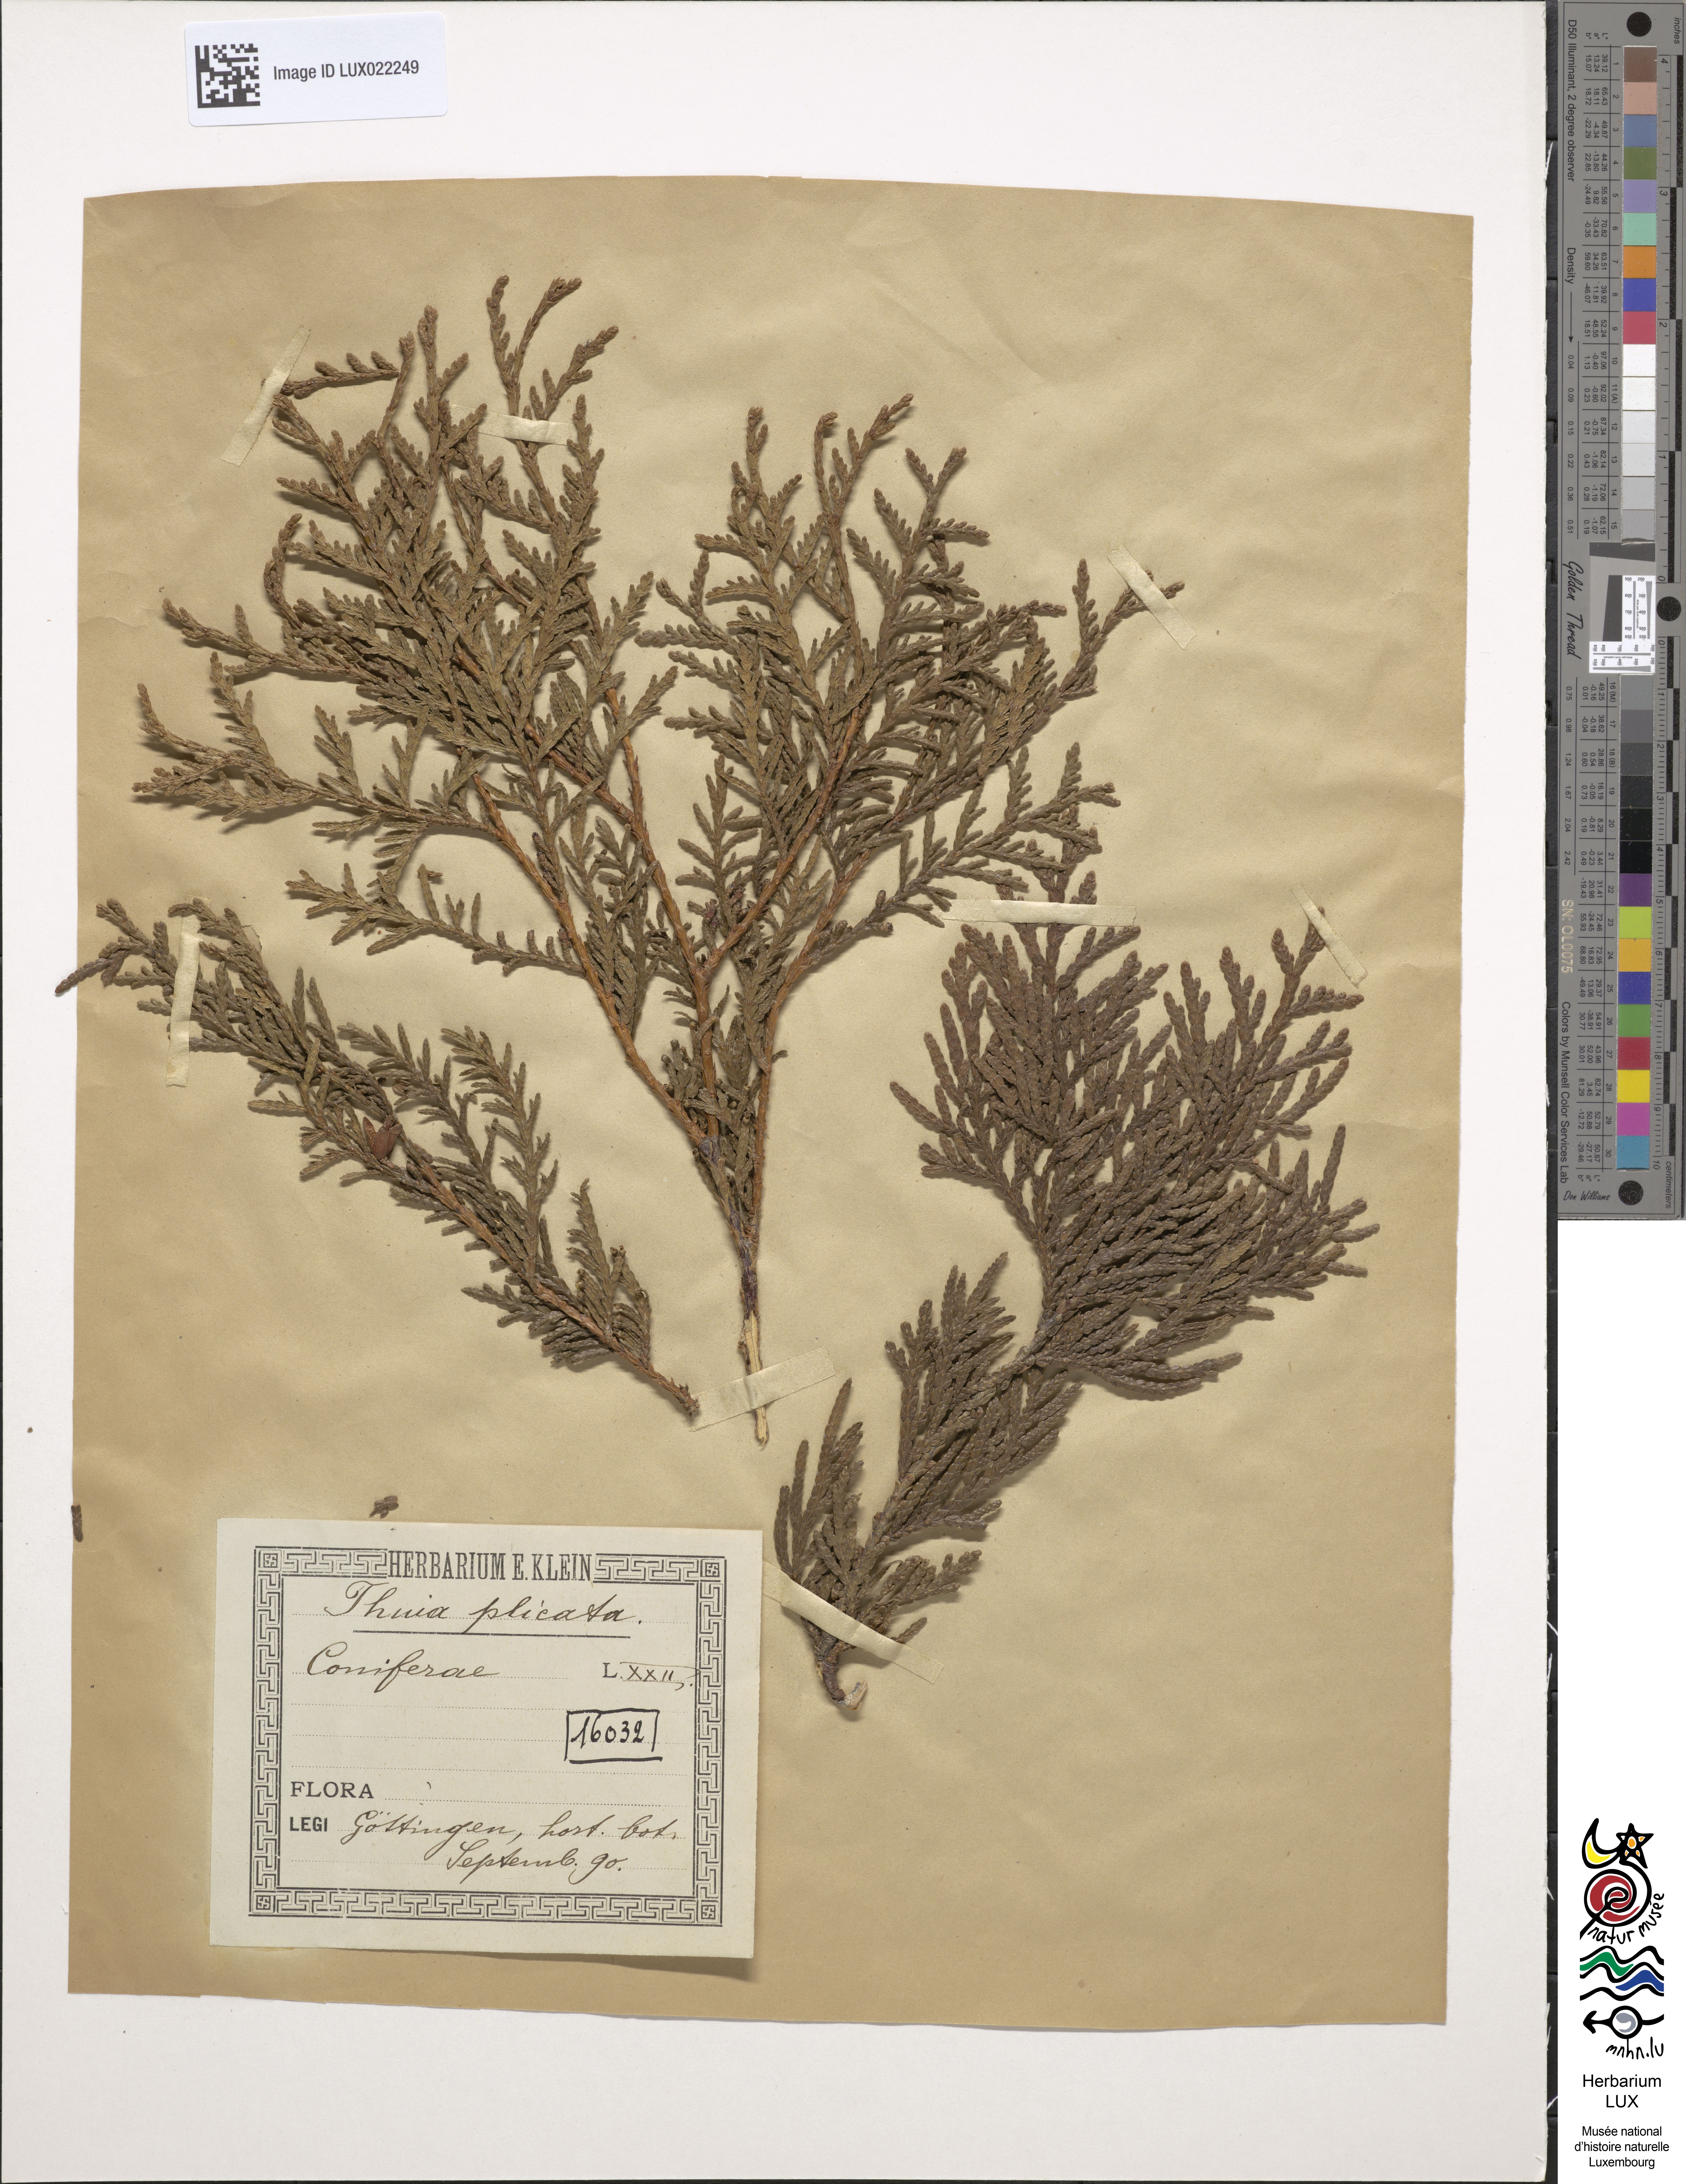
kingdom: Plantae
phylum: Tracheophyta
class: Pinopsida
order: Pinales
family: Cupressaceae
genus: Thuja
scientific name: Thuja plicata
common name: Western red-cedar
